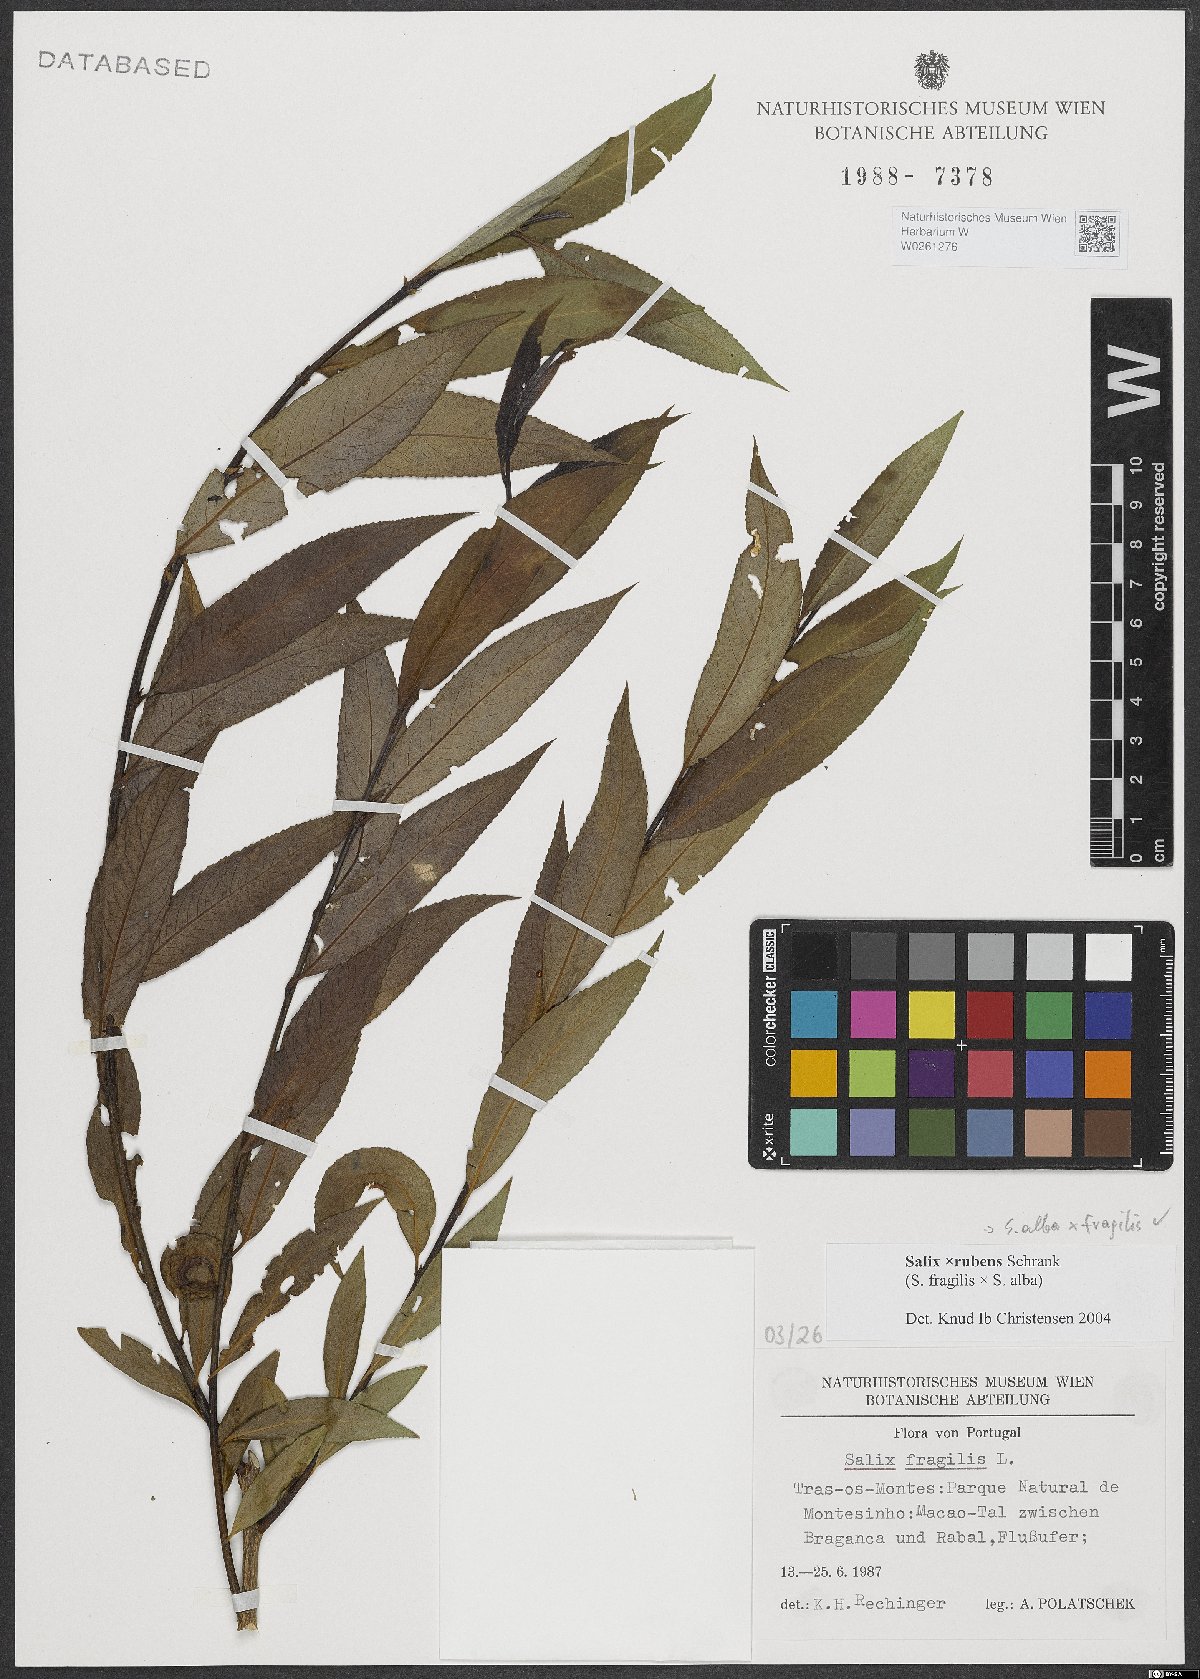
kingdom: Plantae
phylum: Tracheophyta
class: Magnoliopsida
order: Malpighiales
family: Salicaceae
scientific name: Salicaceae
